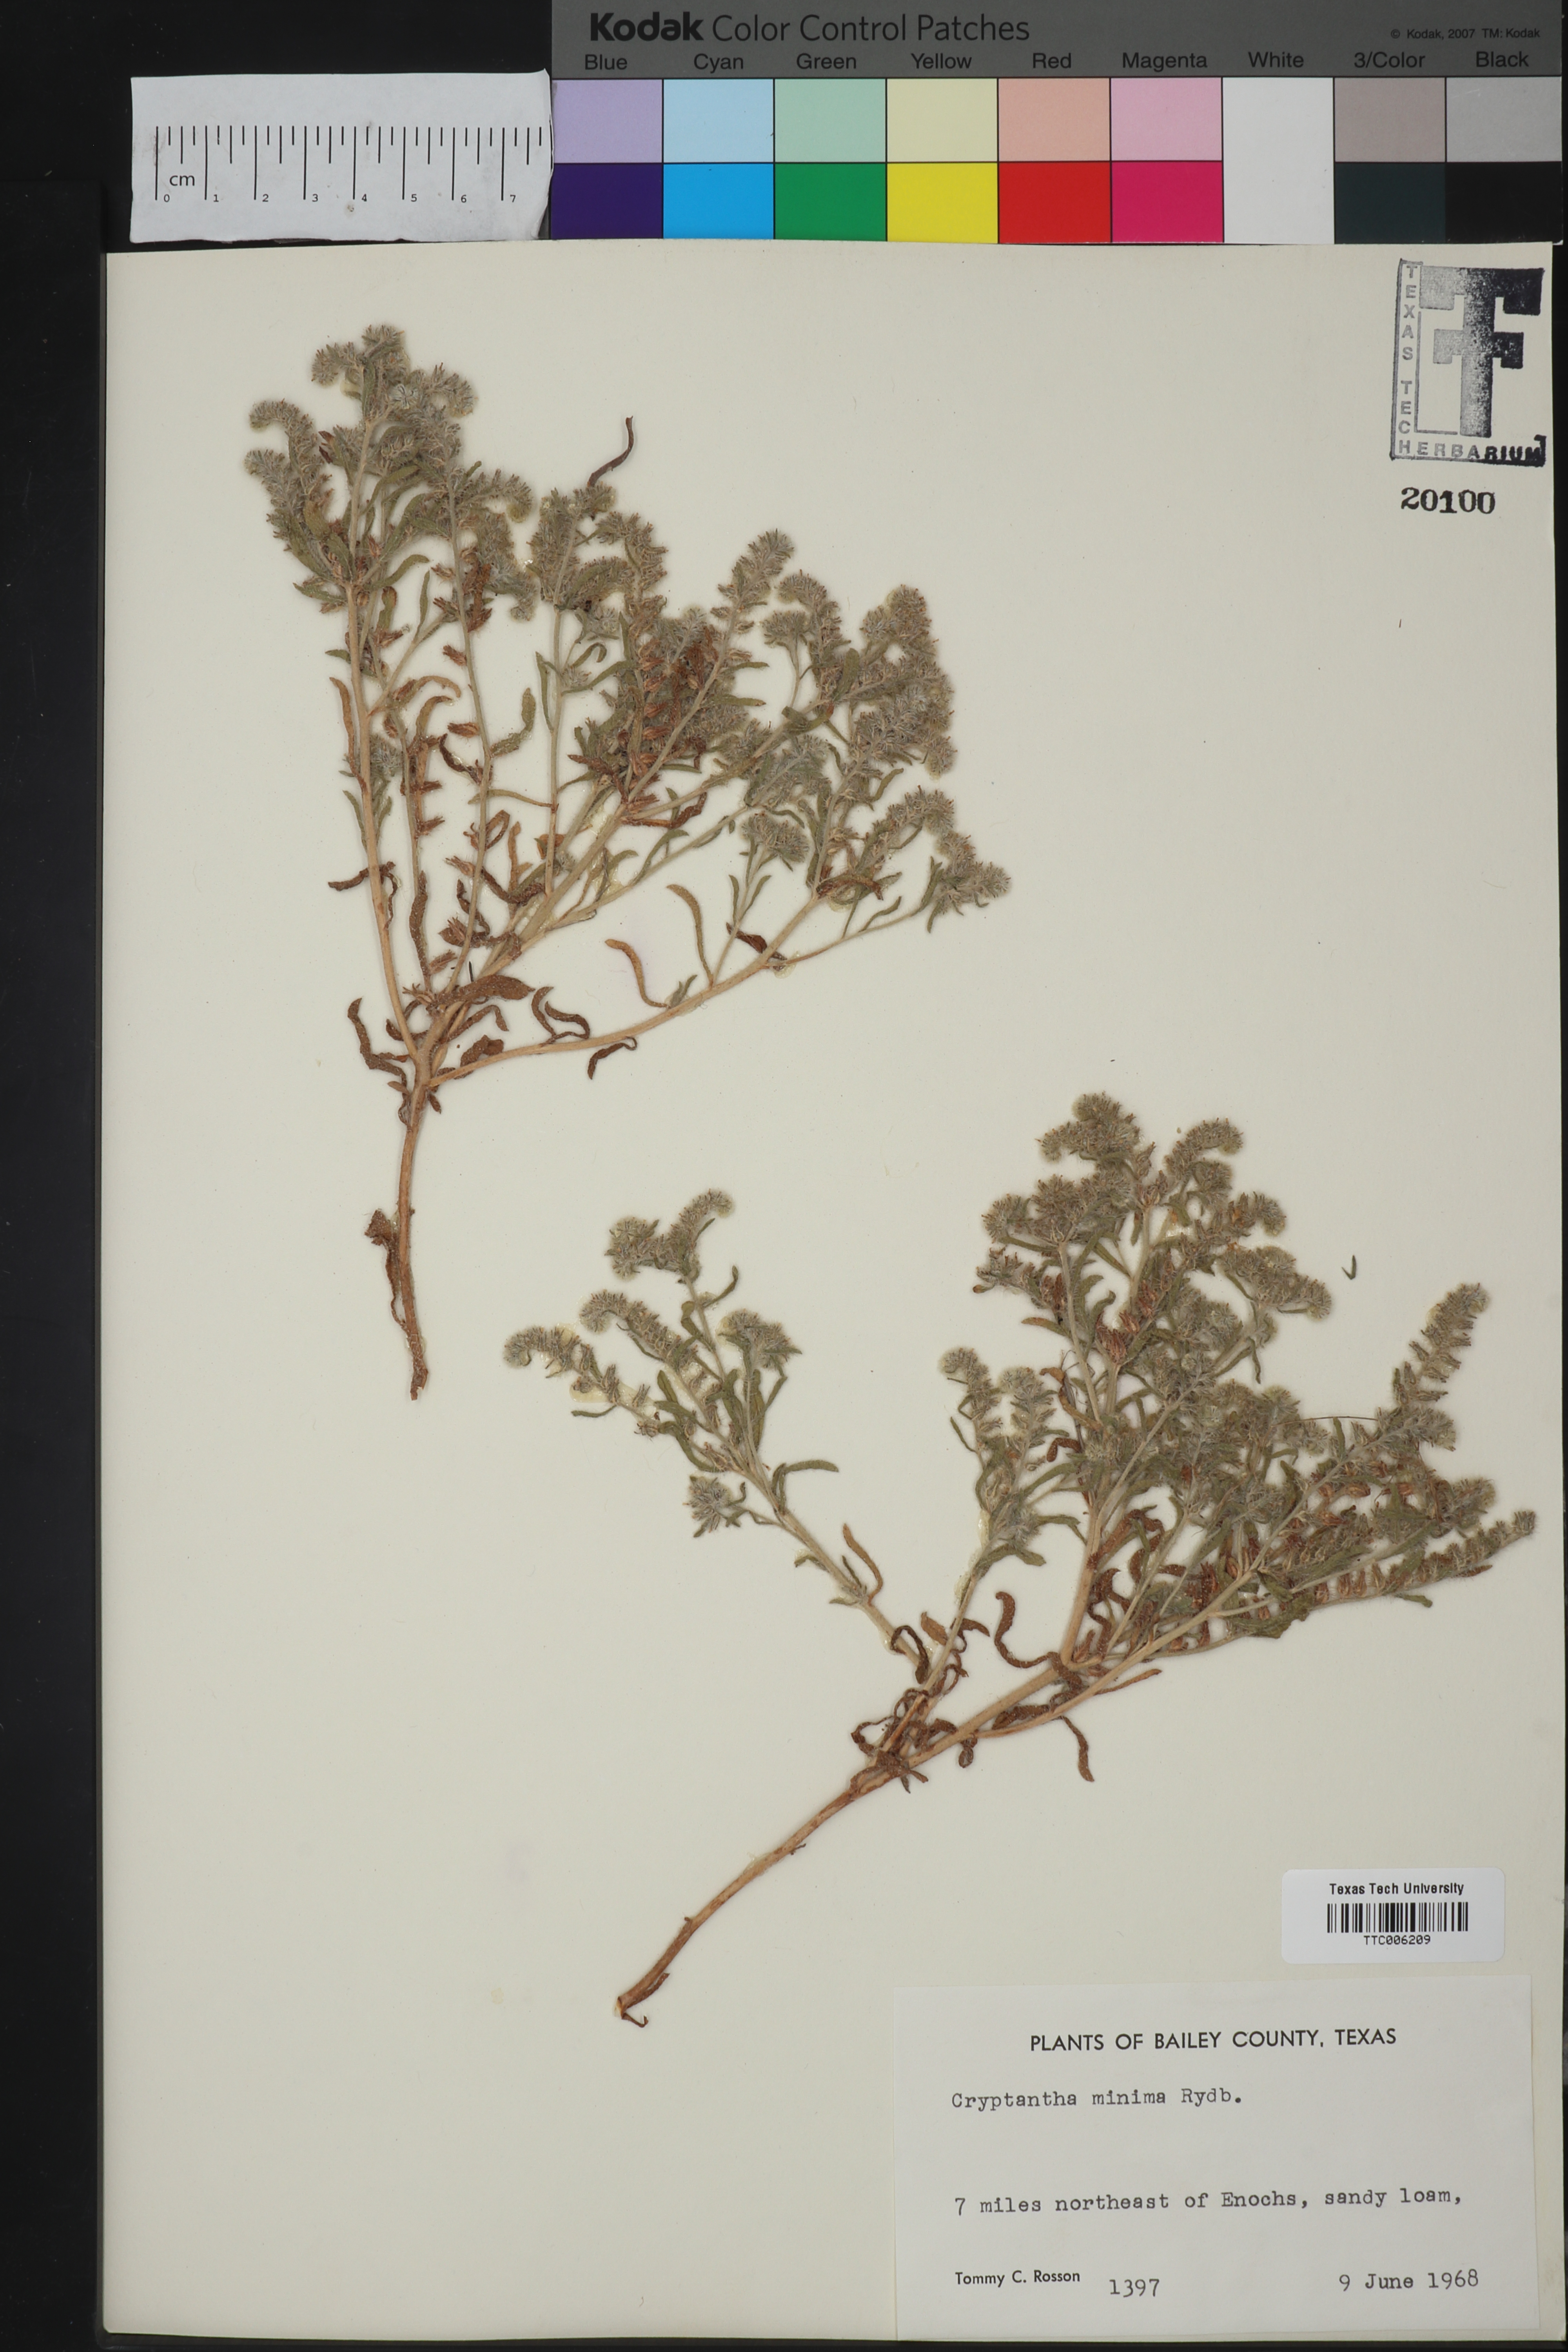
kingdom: Plantae
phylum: Tracheophyta
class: Magnoliopsida
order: Boraginales
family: Boraginaceae
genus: Cryptantha
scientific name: Cryptantha minima
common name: Little cat's-eye
